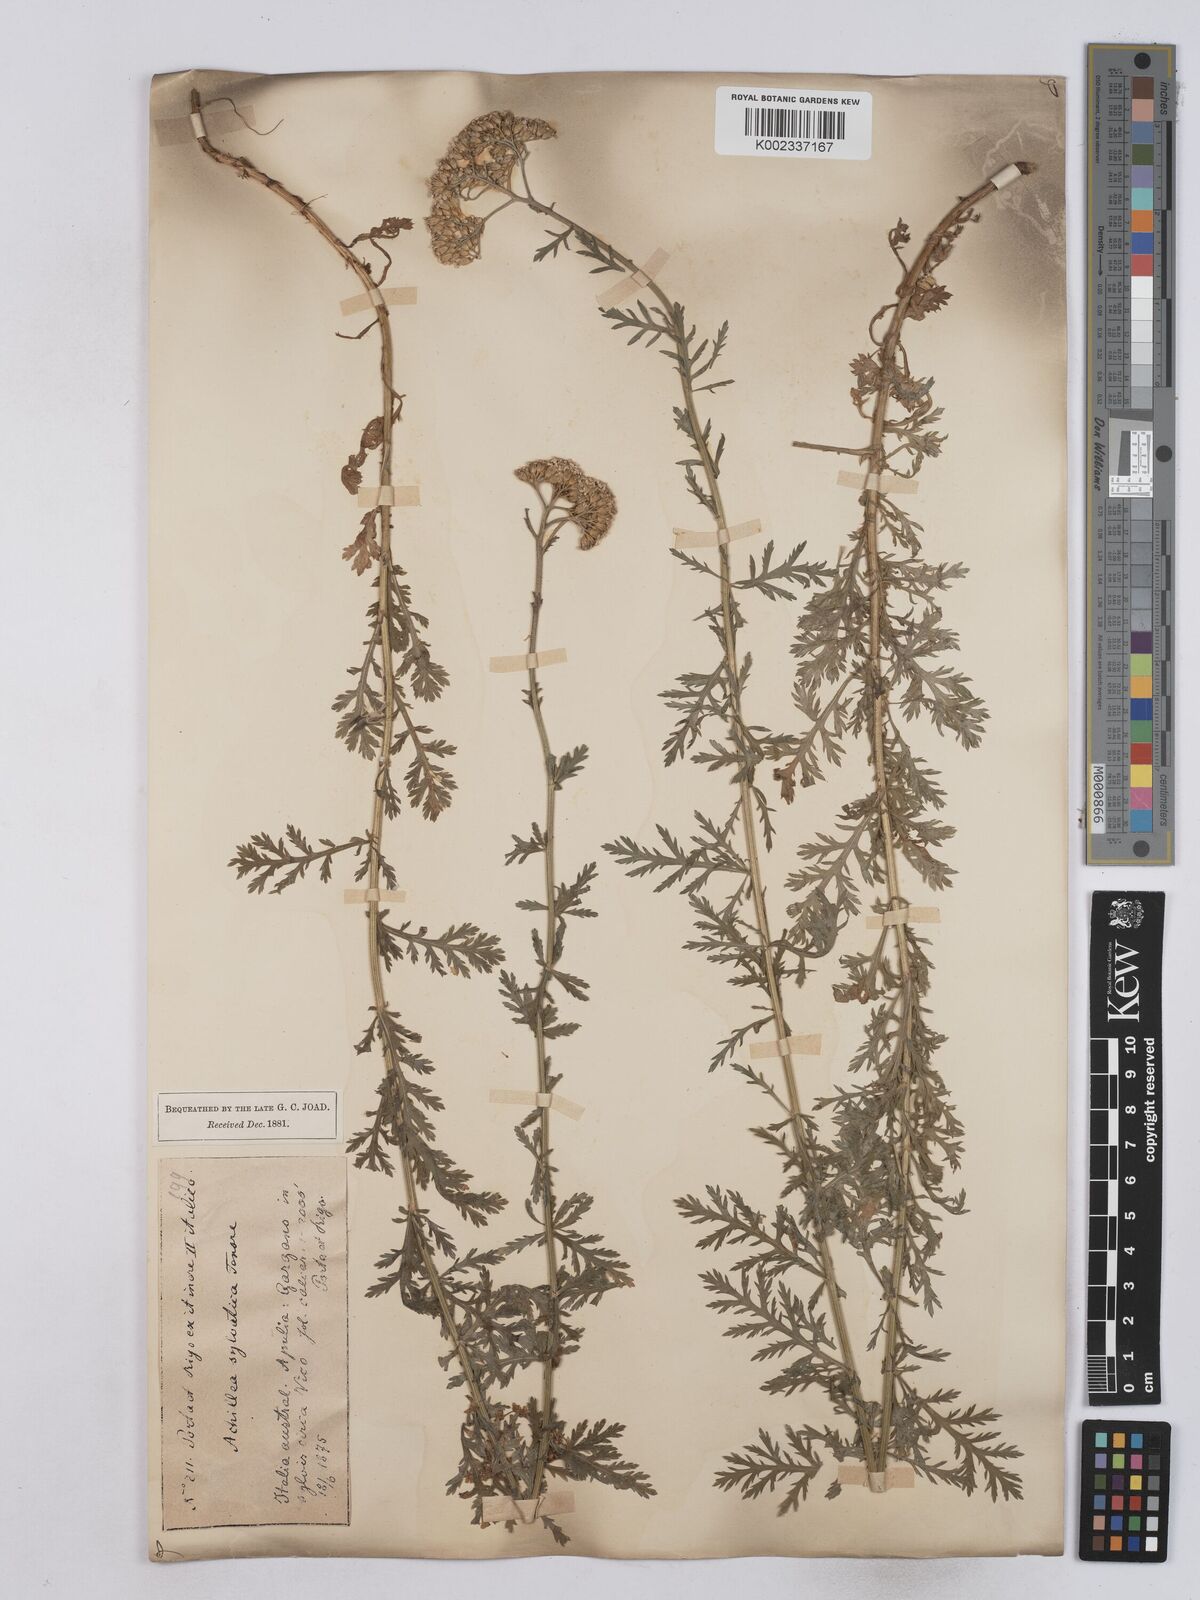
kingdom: Plantae
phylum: Tracheophyta
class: Magnoliopsida
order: Asterales
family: Asteraceae
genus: Achillea
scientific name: Achillea ligustica
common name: Southern yarrow
